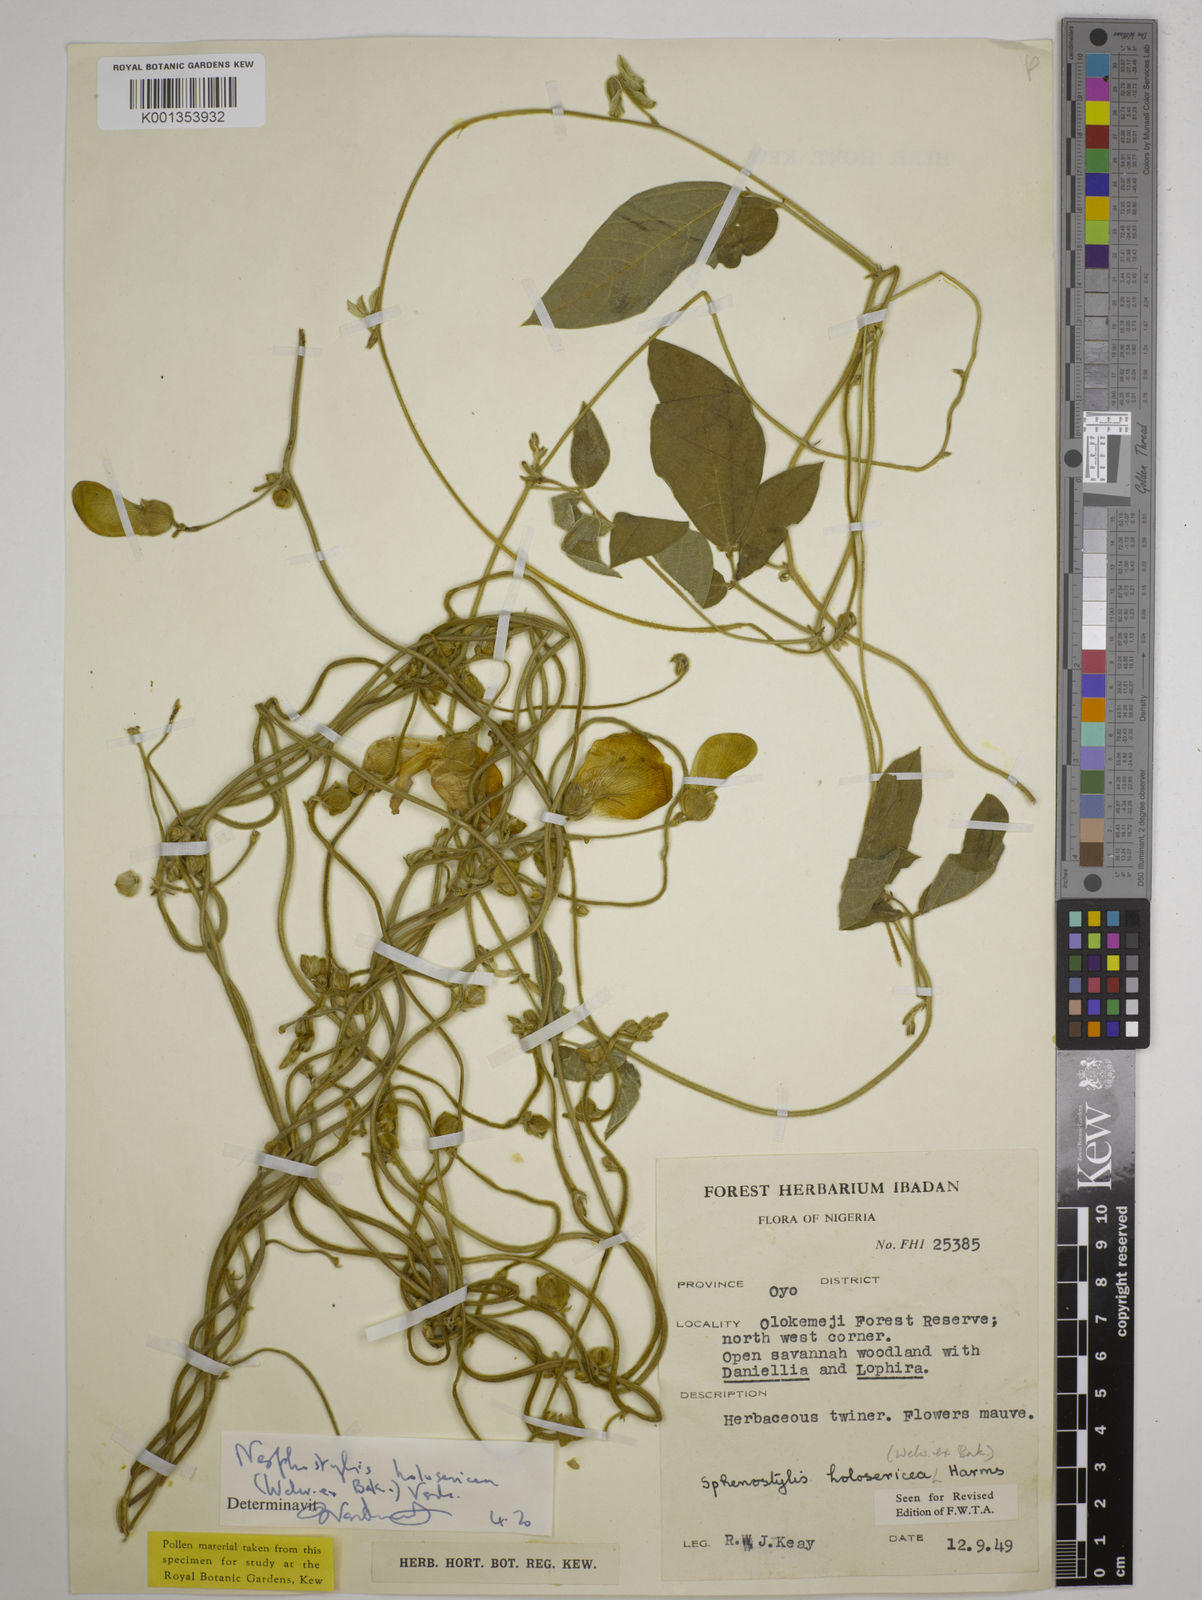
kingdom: Plantae
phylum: Tracheophyta
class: Magnoliopsida
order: Fabales
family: Fabaceae
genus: Nesphostylis
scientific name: Nesphostylis holosericea
